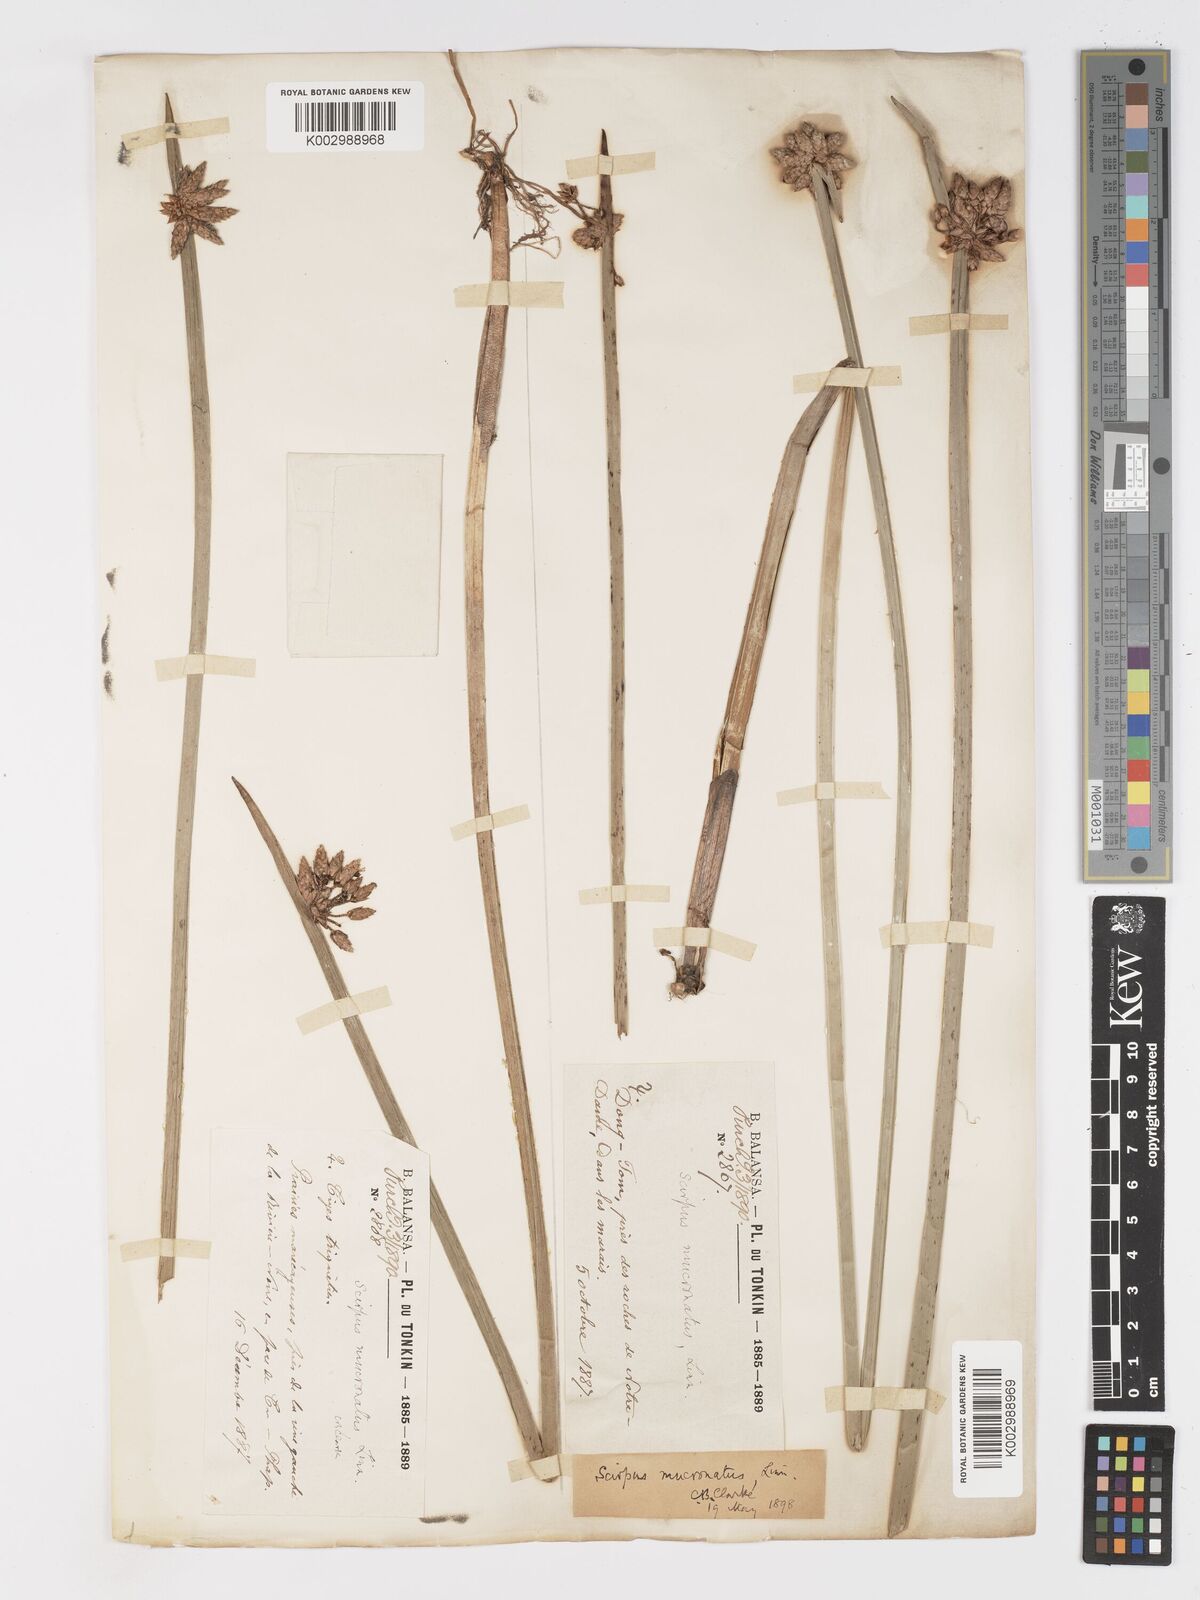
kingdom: Plantae
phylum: Tracheophyta
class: Liliopsida
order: Poales
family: Cyperaceae
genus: Schoenoplectiella
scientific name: Schoenoplectiella mucronata
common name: Bog bulrush
